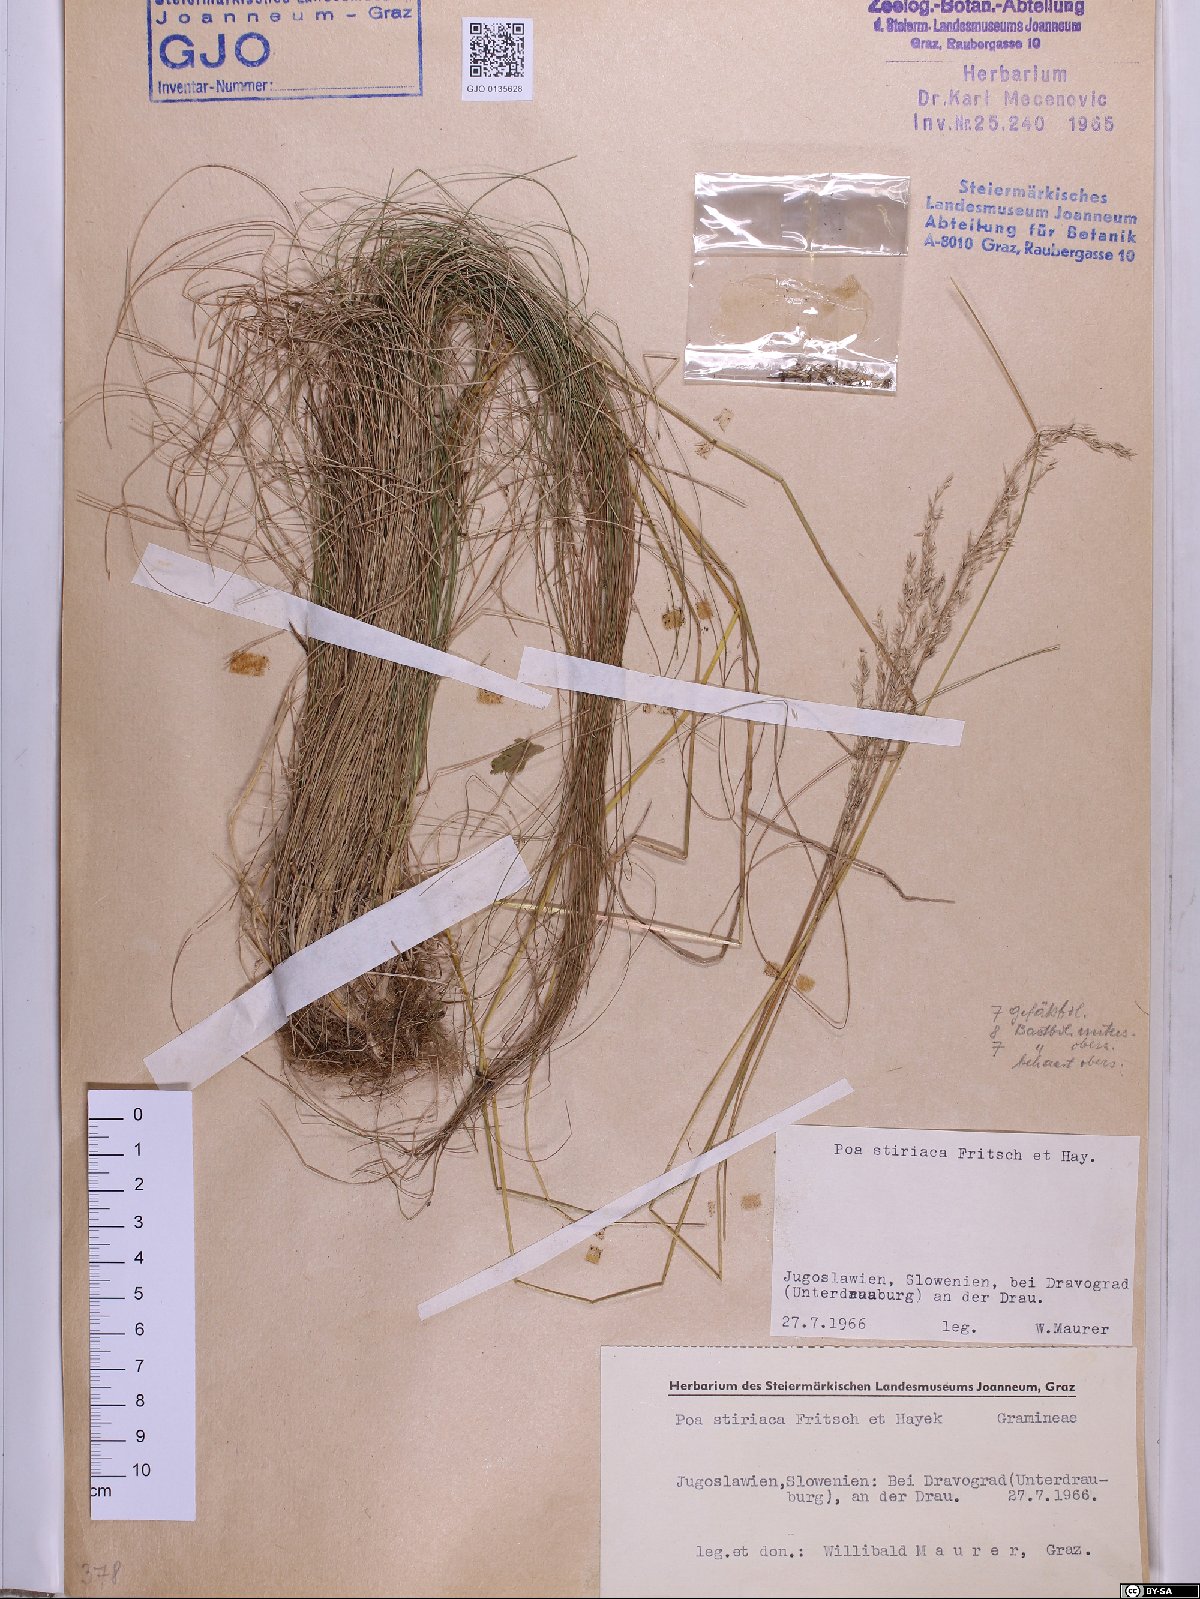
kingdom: Plantae
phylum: Tracheophyta
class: Liliopsida
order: Poales
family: Poaceae
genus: Poa
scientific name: Poa stiriaca
